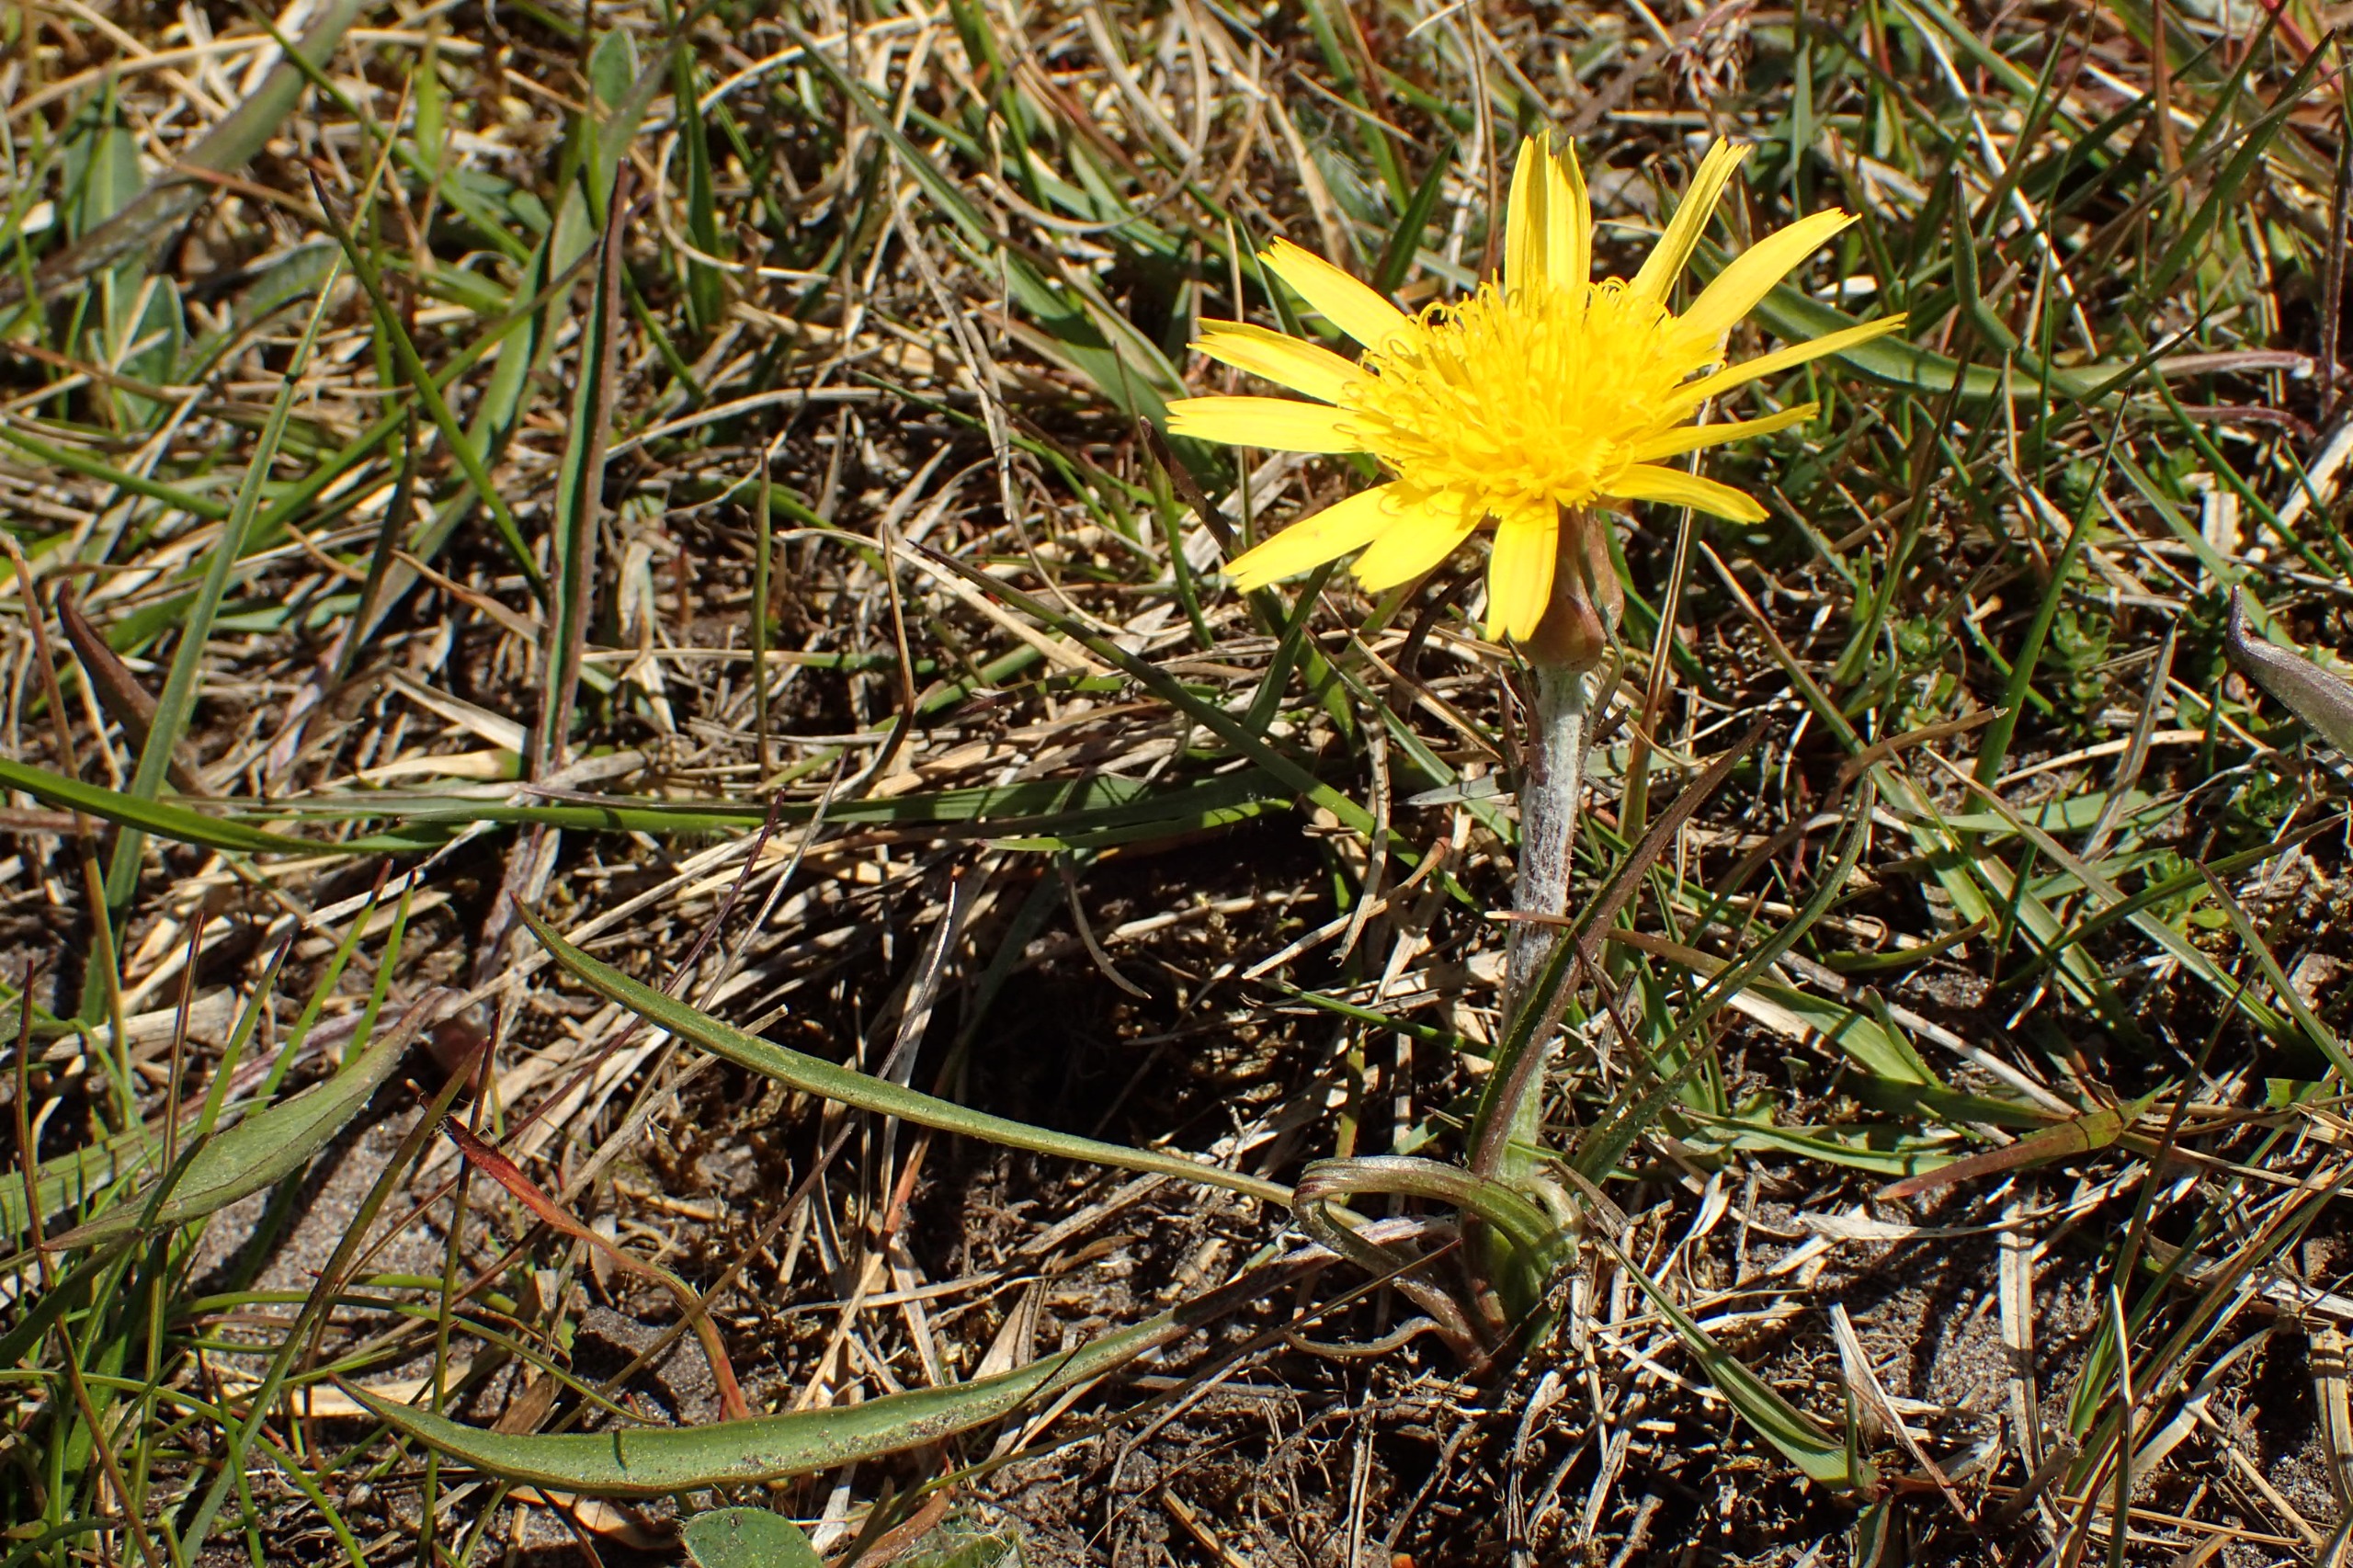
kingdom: Plantae
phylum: Tracheophyta
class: Magnoliopsida
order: Asterales
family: Asteraceae
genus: Scorzonera
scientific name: Scorzonera humilis
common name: Lav skorsoner
